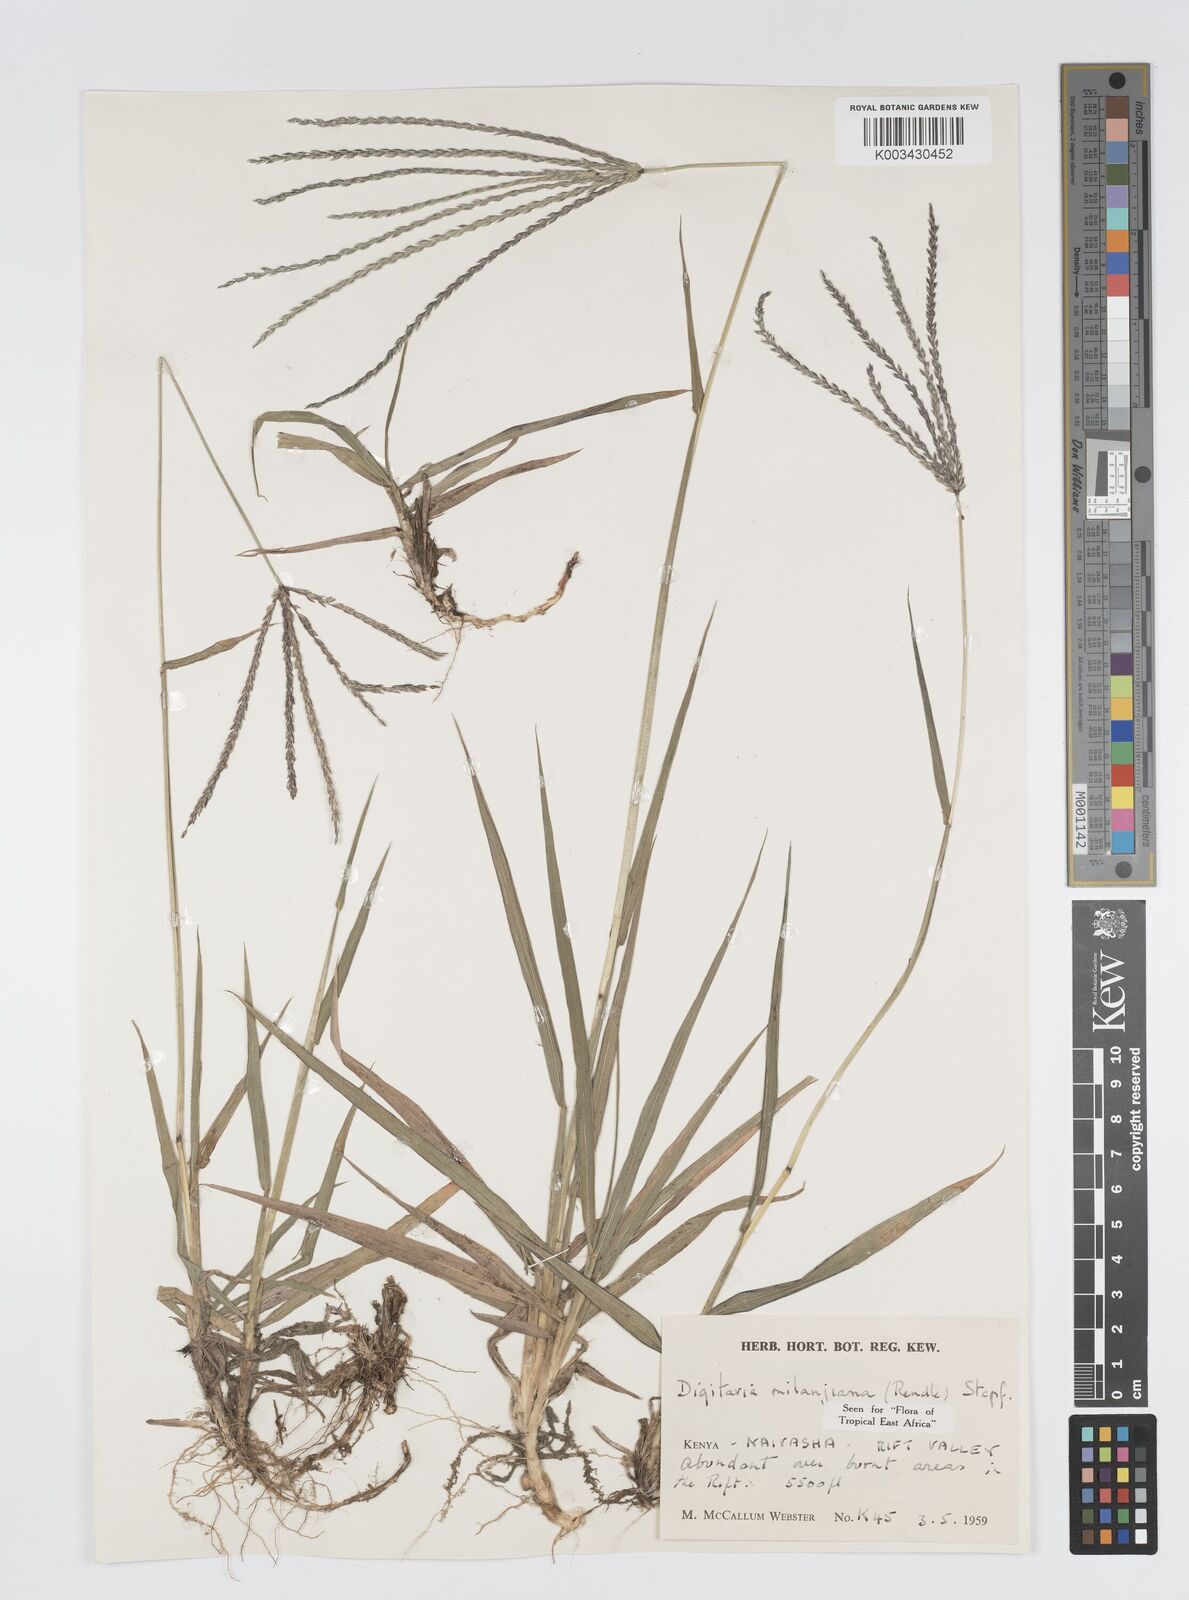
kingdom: Plantae
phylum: Tracheophyta
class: Liliopsida
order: Poales
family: Poaceae
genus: Digitaria
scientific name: Digitaria milanjiana
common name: Madagascar crabgrass
